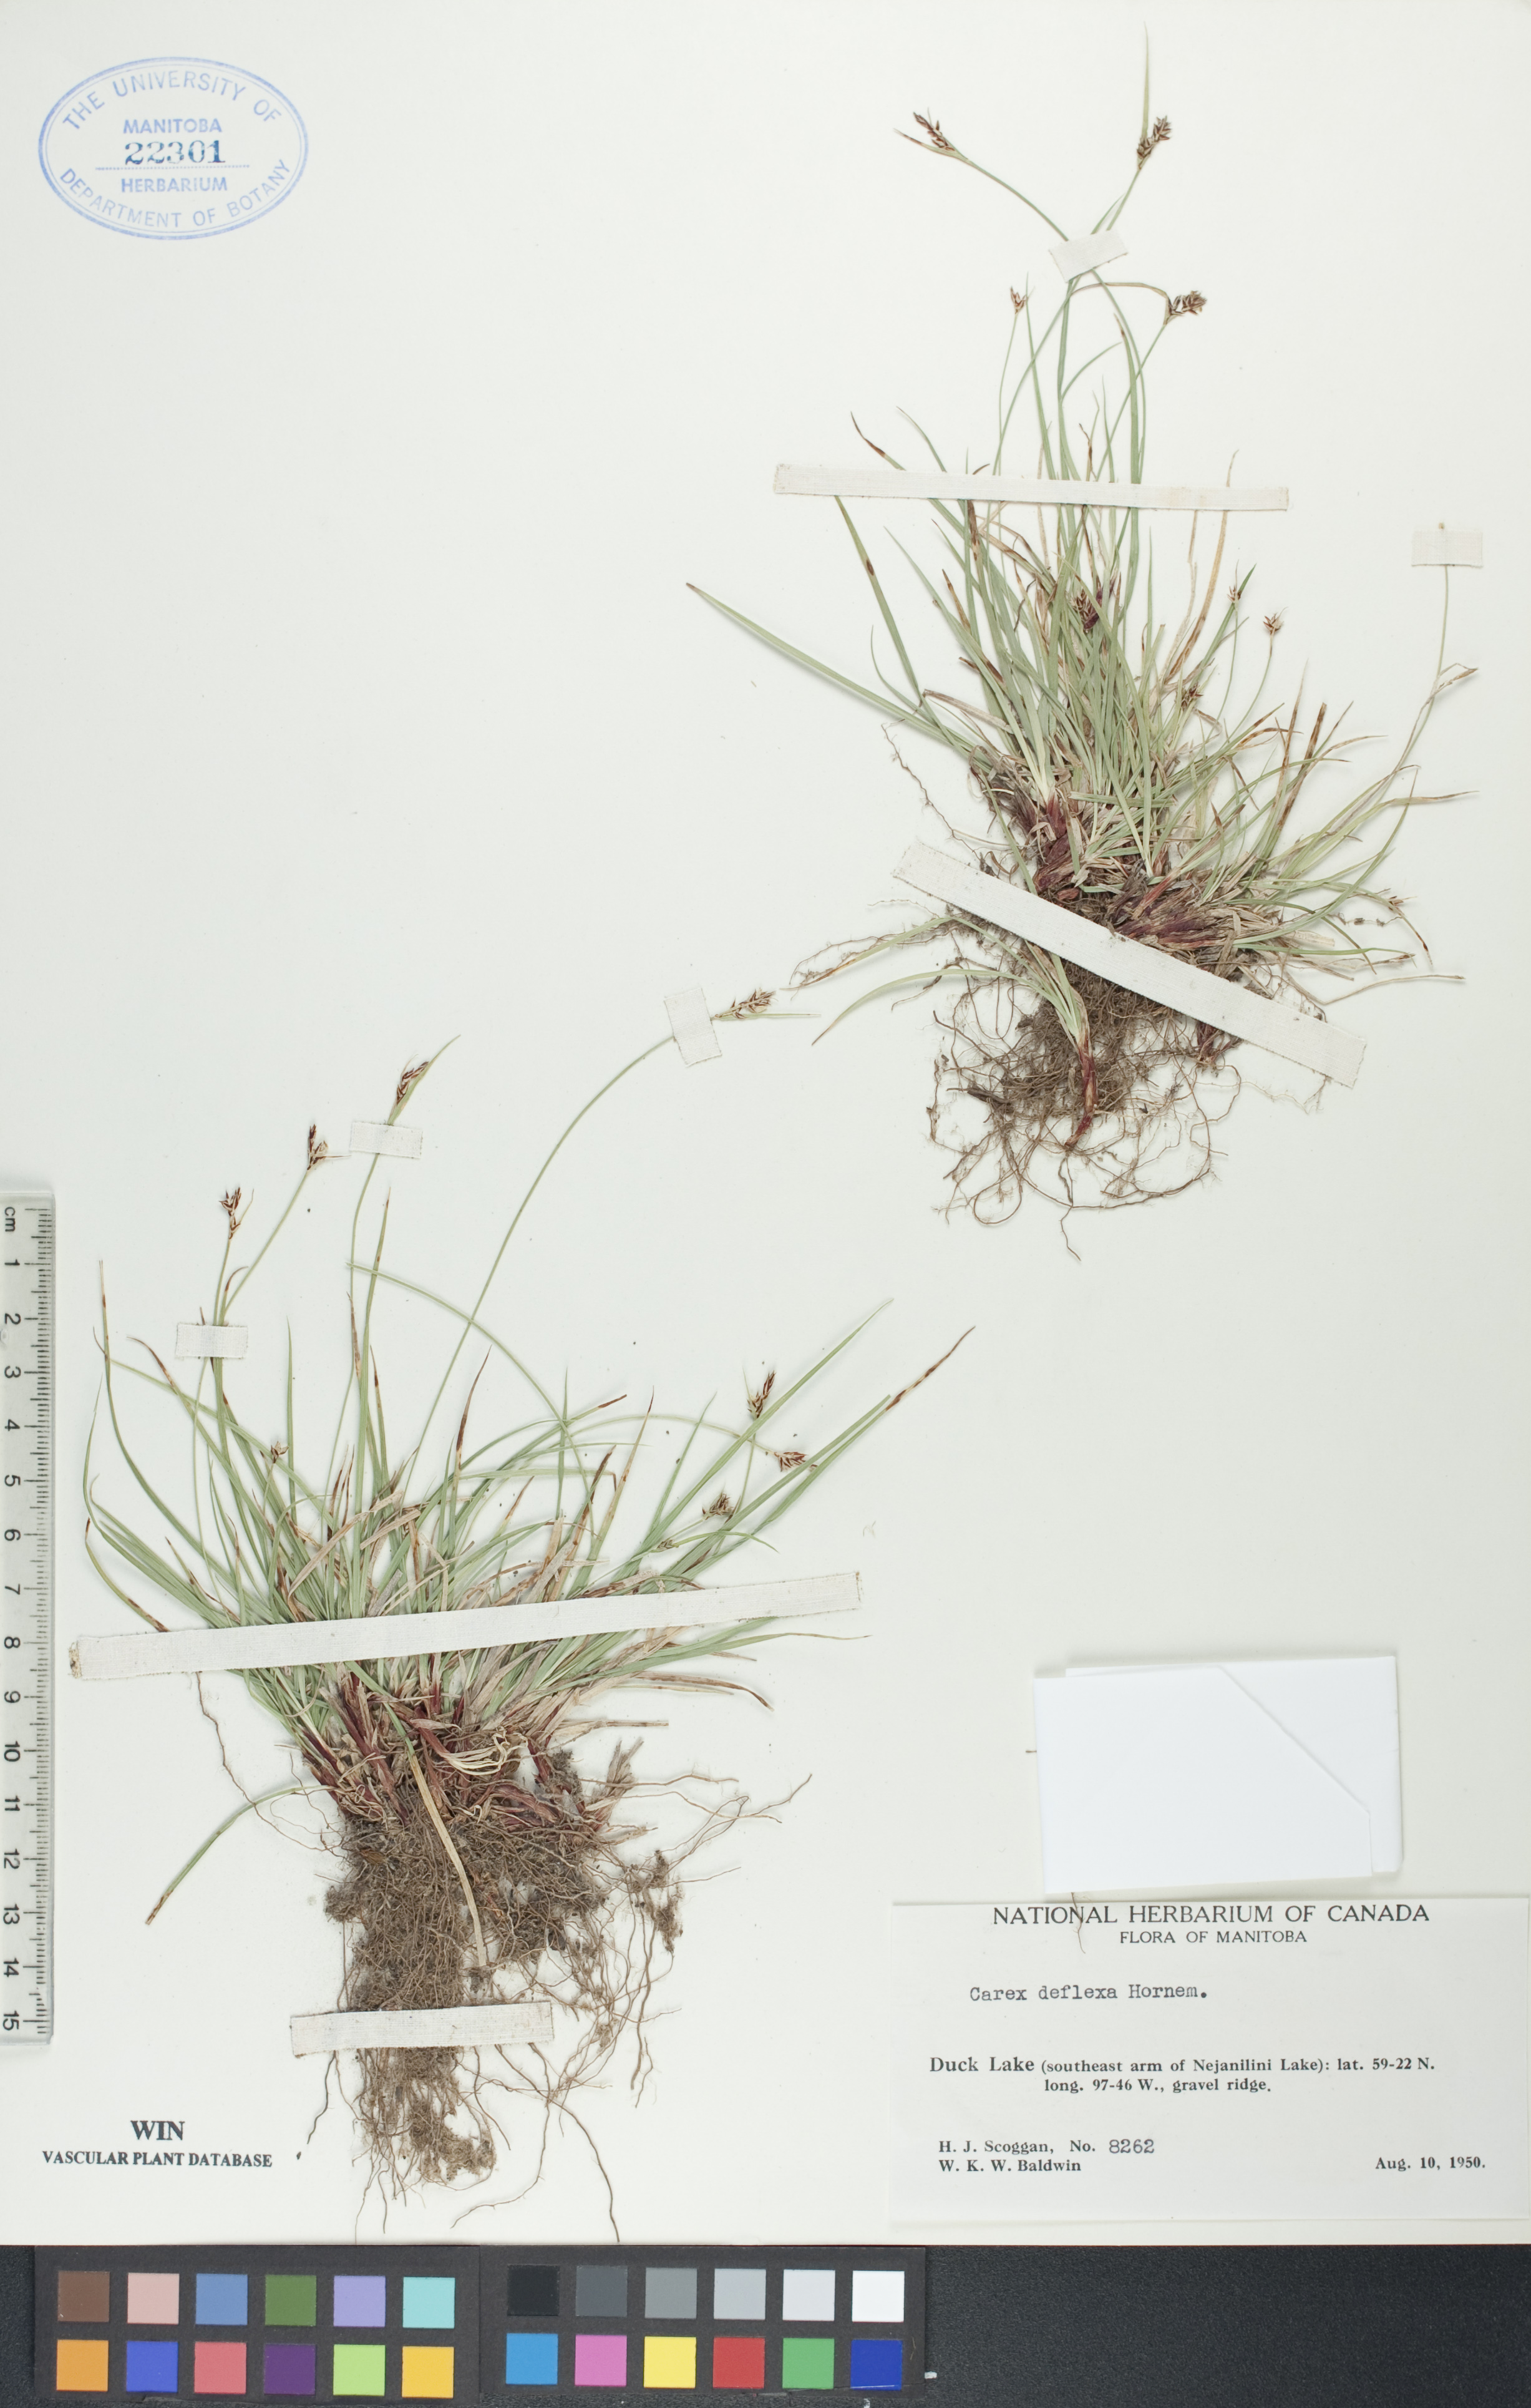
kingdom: Plantae
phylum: Tracheophyta
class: Liliopsida
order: Poales
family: Cyperaceae
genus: Carex
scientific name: Carex deflexa
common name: Bent northern sedge
